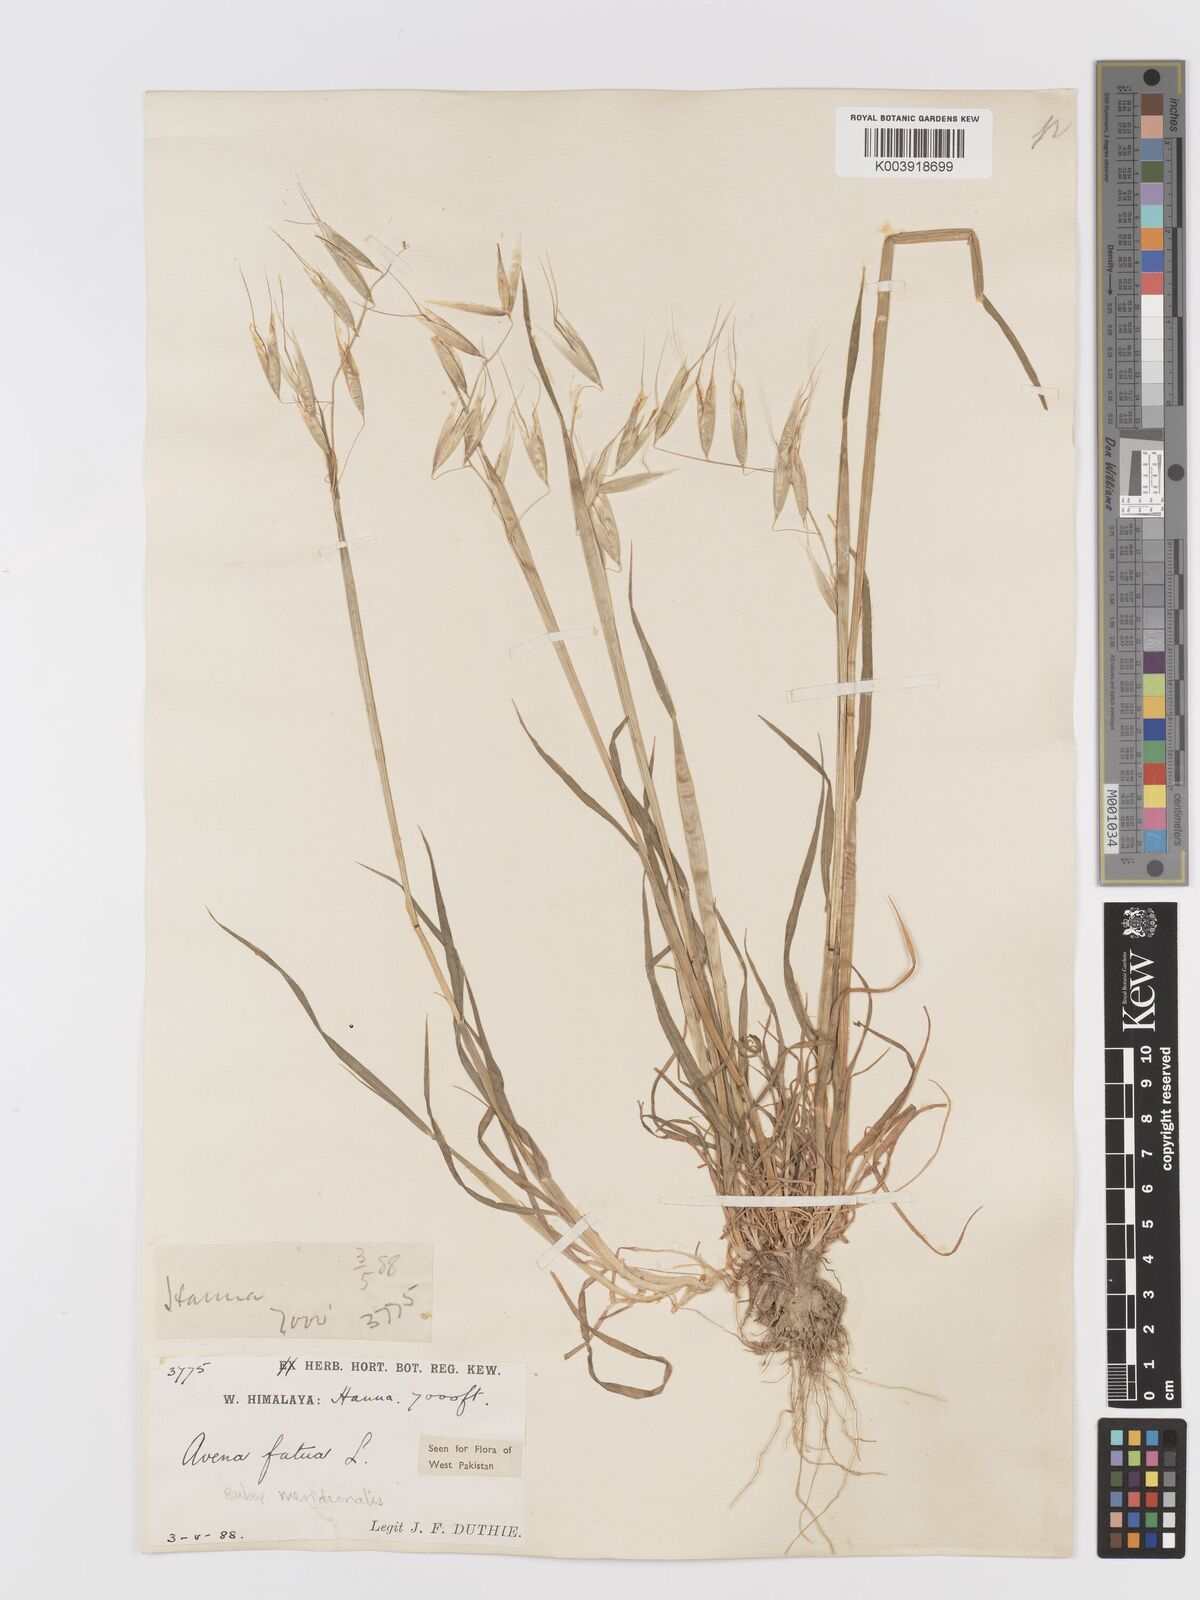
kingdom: Plantae
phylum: Tracheophyta
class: Liliopsida
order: Poales
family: Poaceae
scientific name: Poaceae
